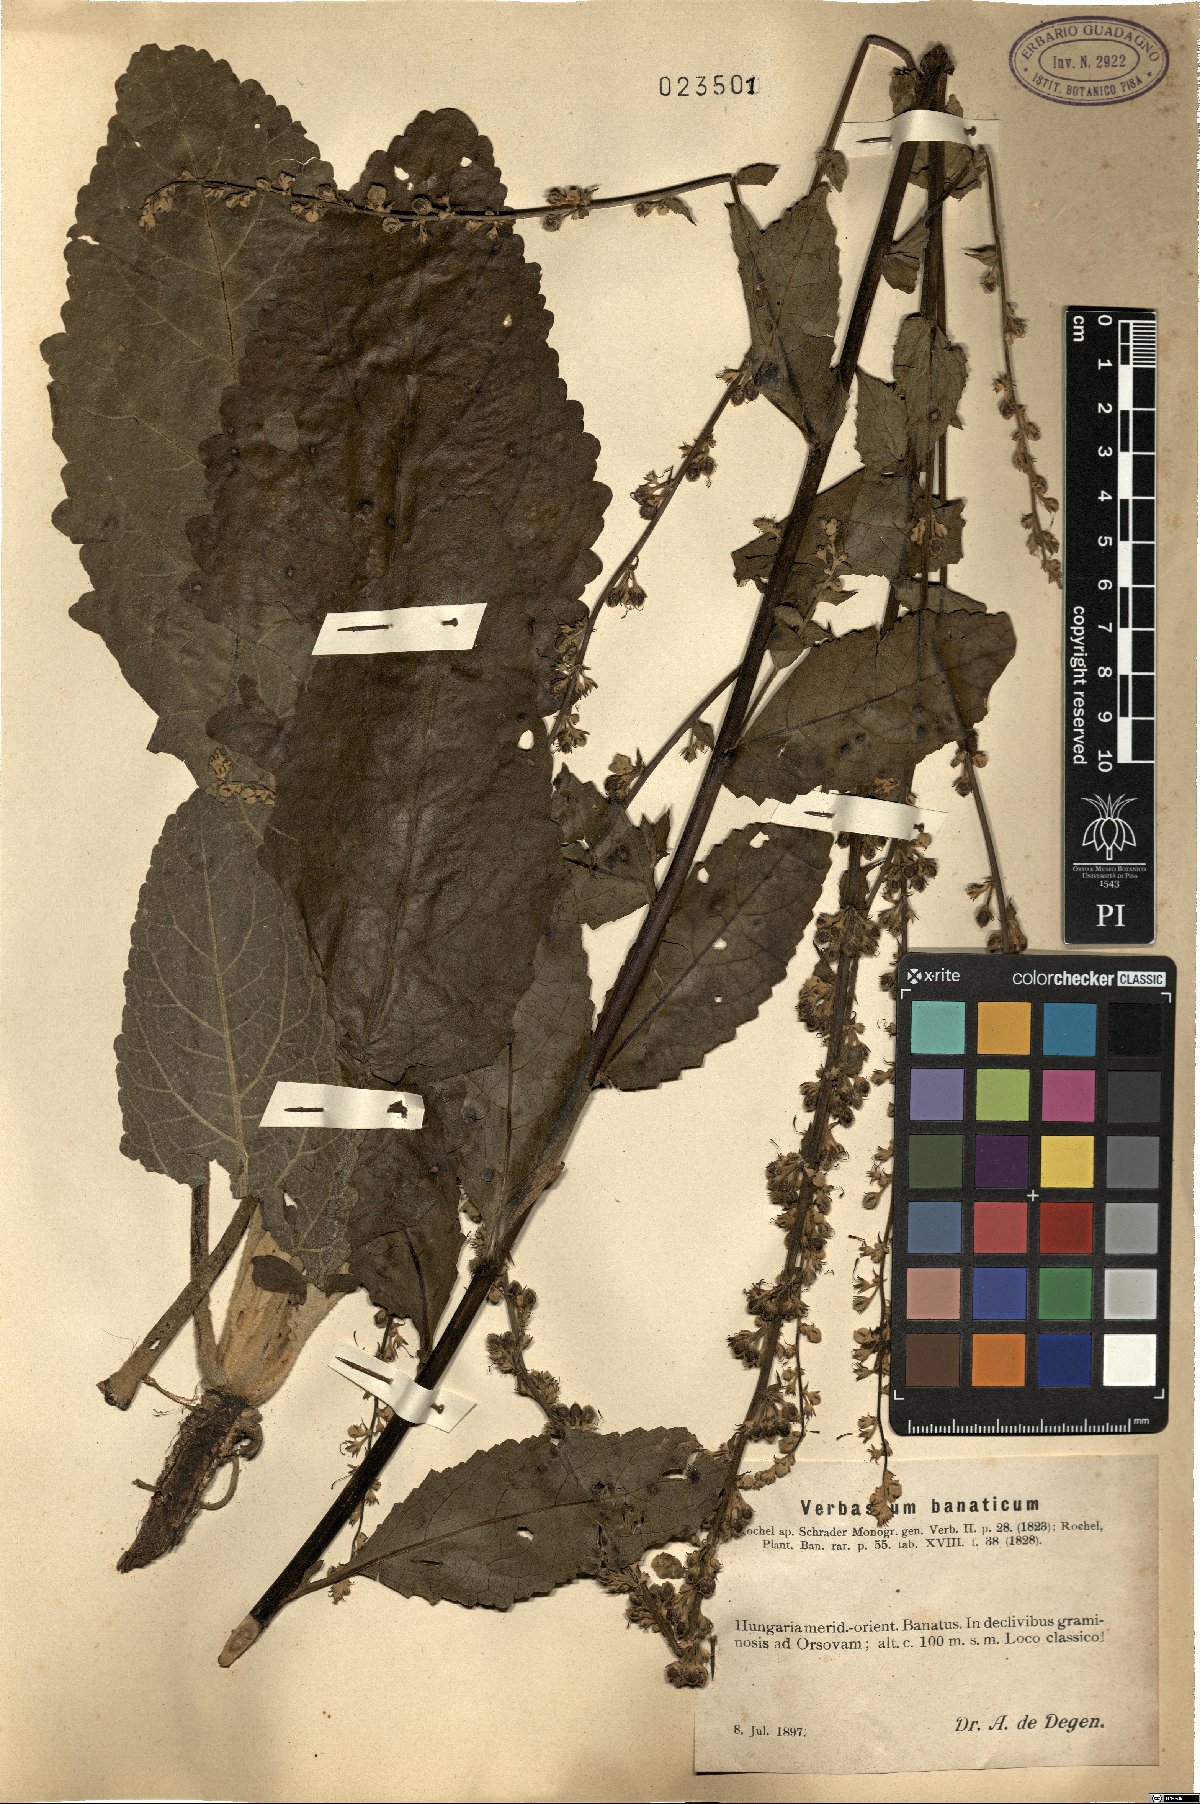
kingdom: Plantae
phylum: Tracheophyta
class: Magnoliopsida
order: Lamiales
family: Scrophulariaceae
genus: Verbascum
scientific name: Verbascum banaticum
